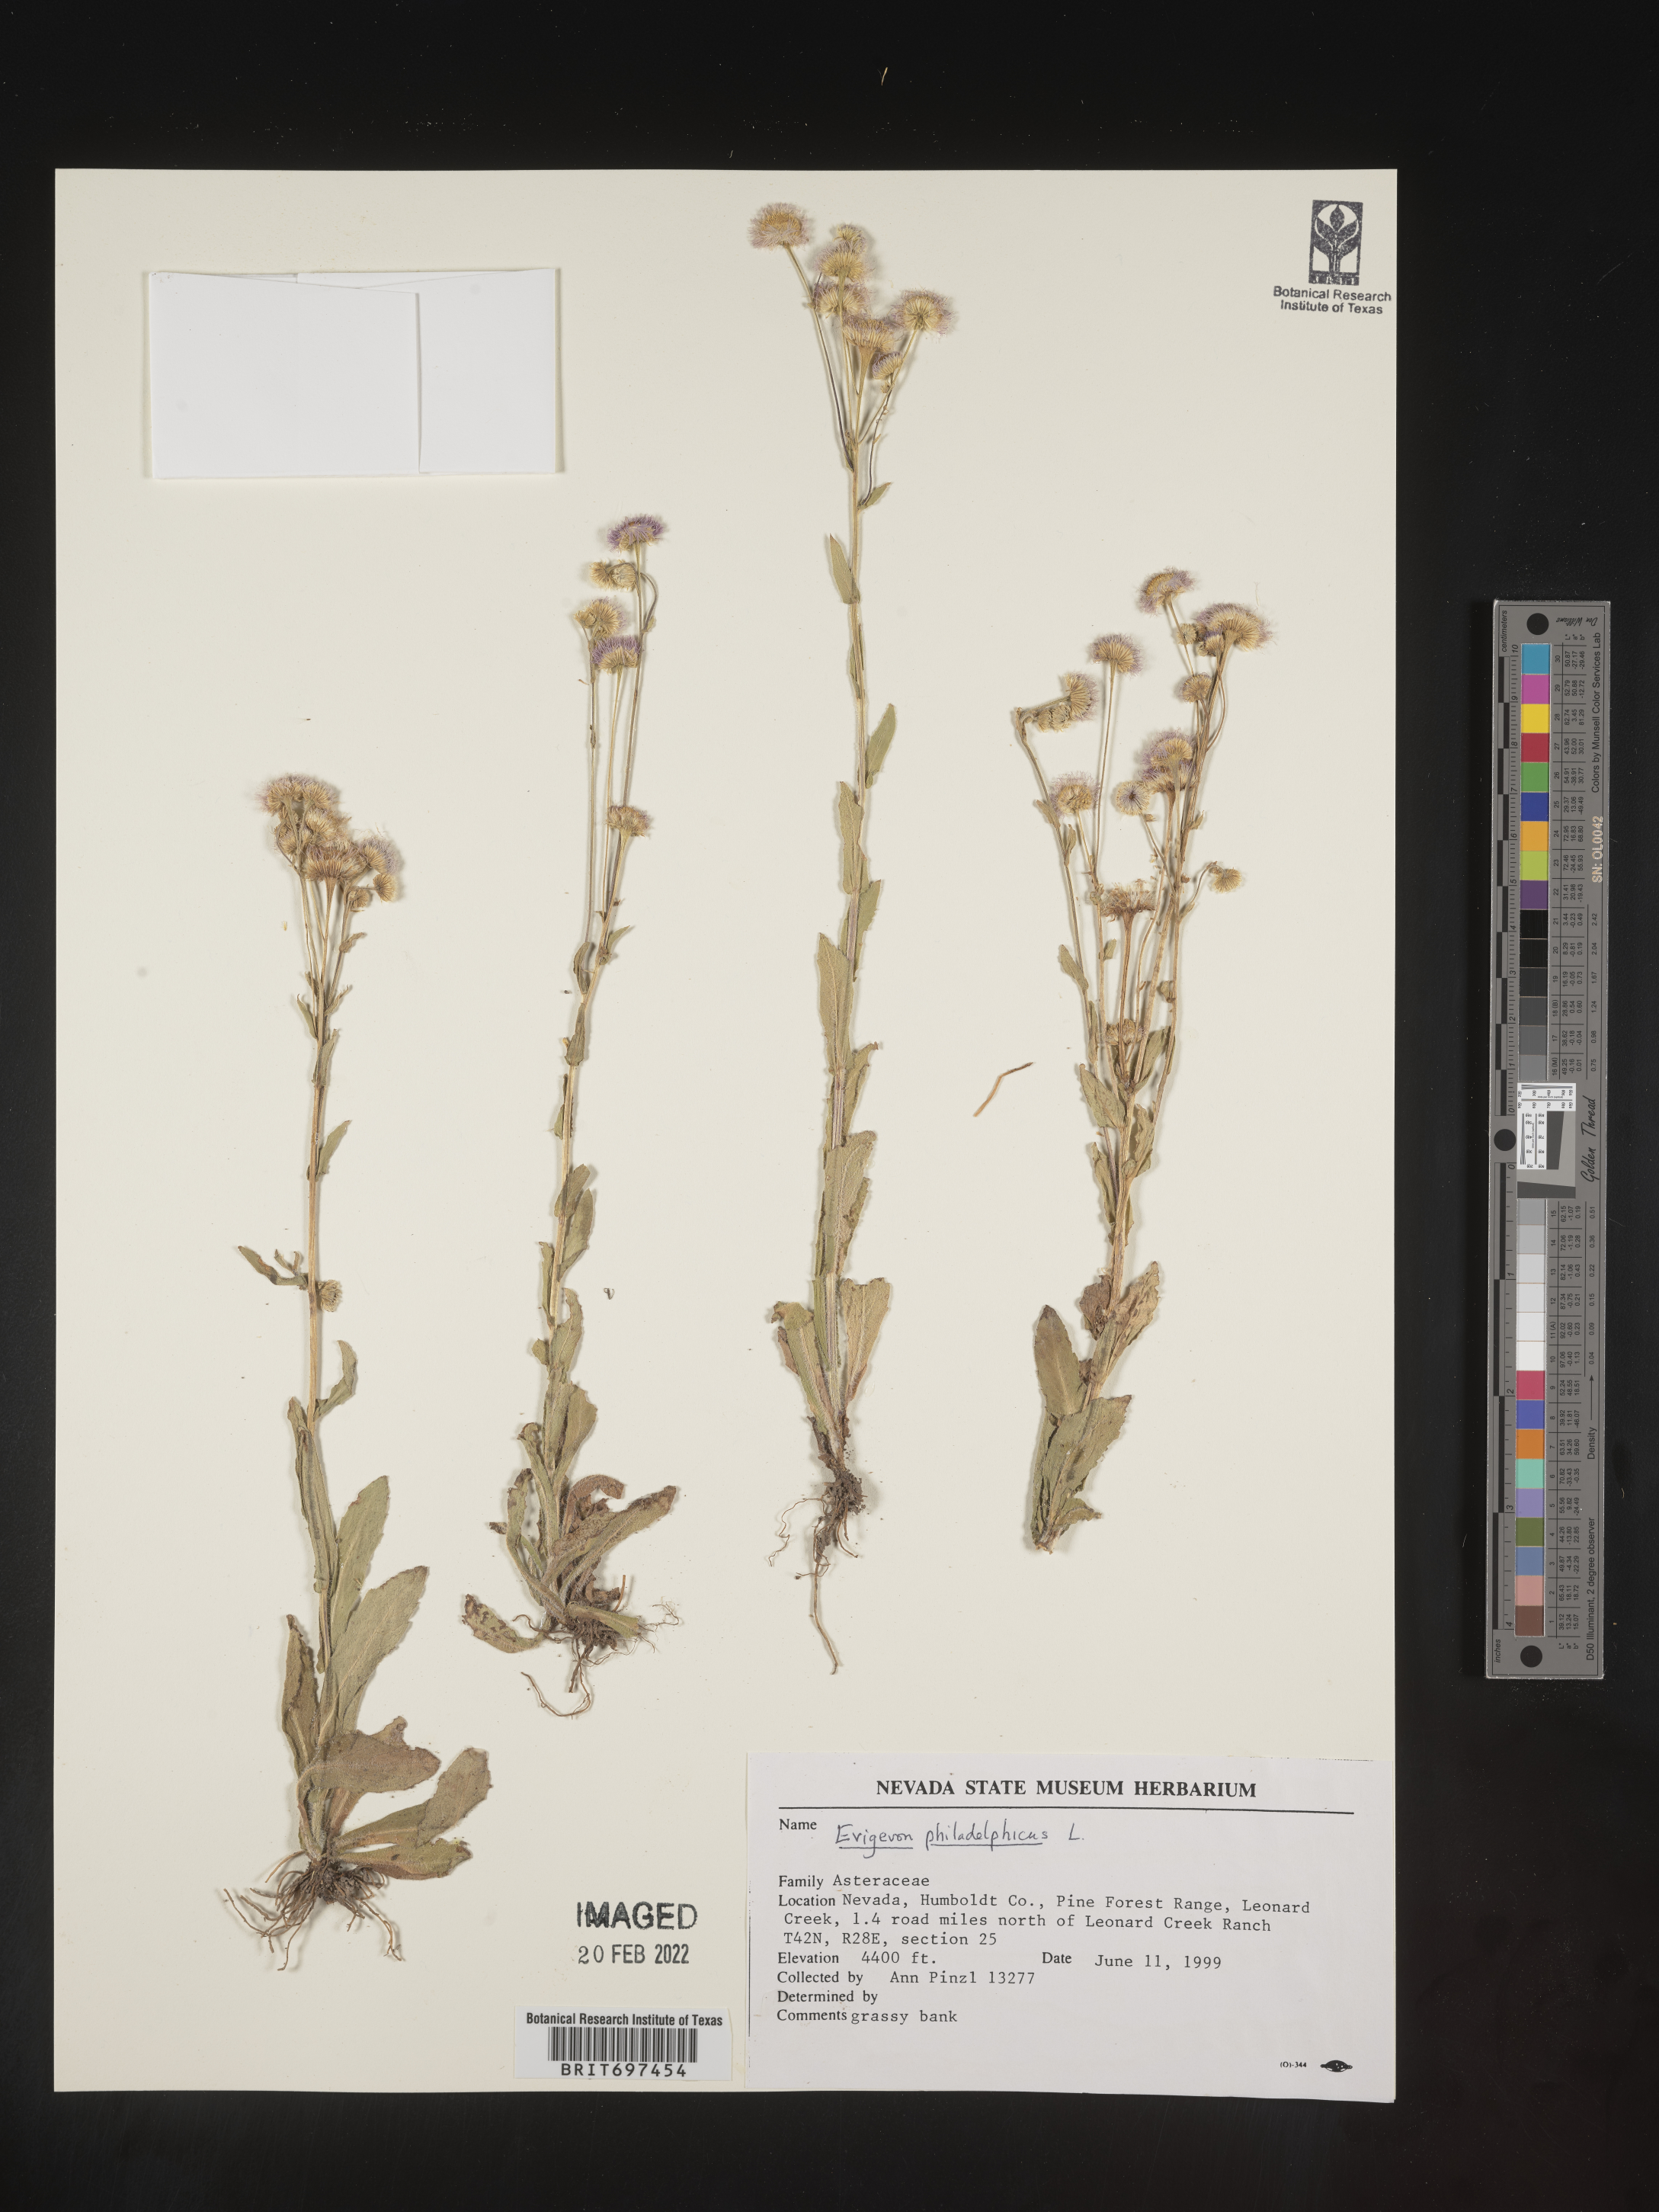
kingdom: Plantae
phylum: Tracheophyta
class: Magnoliopsida
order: Asterales
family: Asteraceae
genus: Erigeron
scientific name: Erigeron philadelphicus
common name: Robin's-plantain
